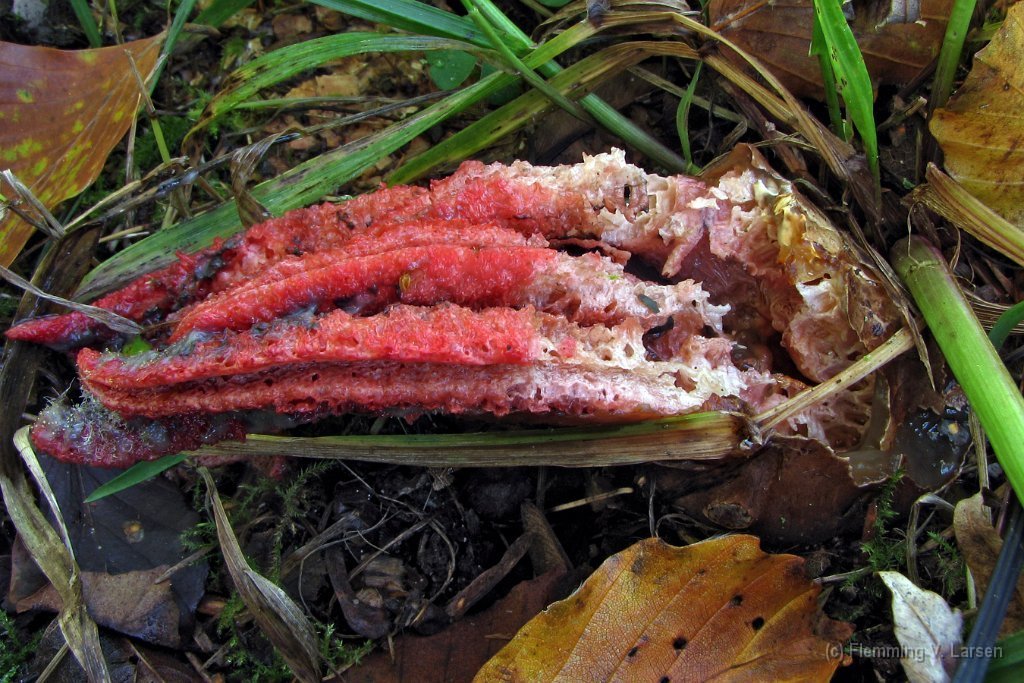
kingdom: Fungi
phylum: Basidiomycota
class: Agaricomycetes
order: Phallales
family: Phallaceae
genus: Clathrus
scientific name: Clathrus archeri
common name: blækspruttesvamp
